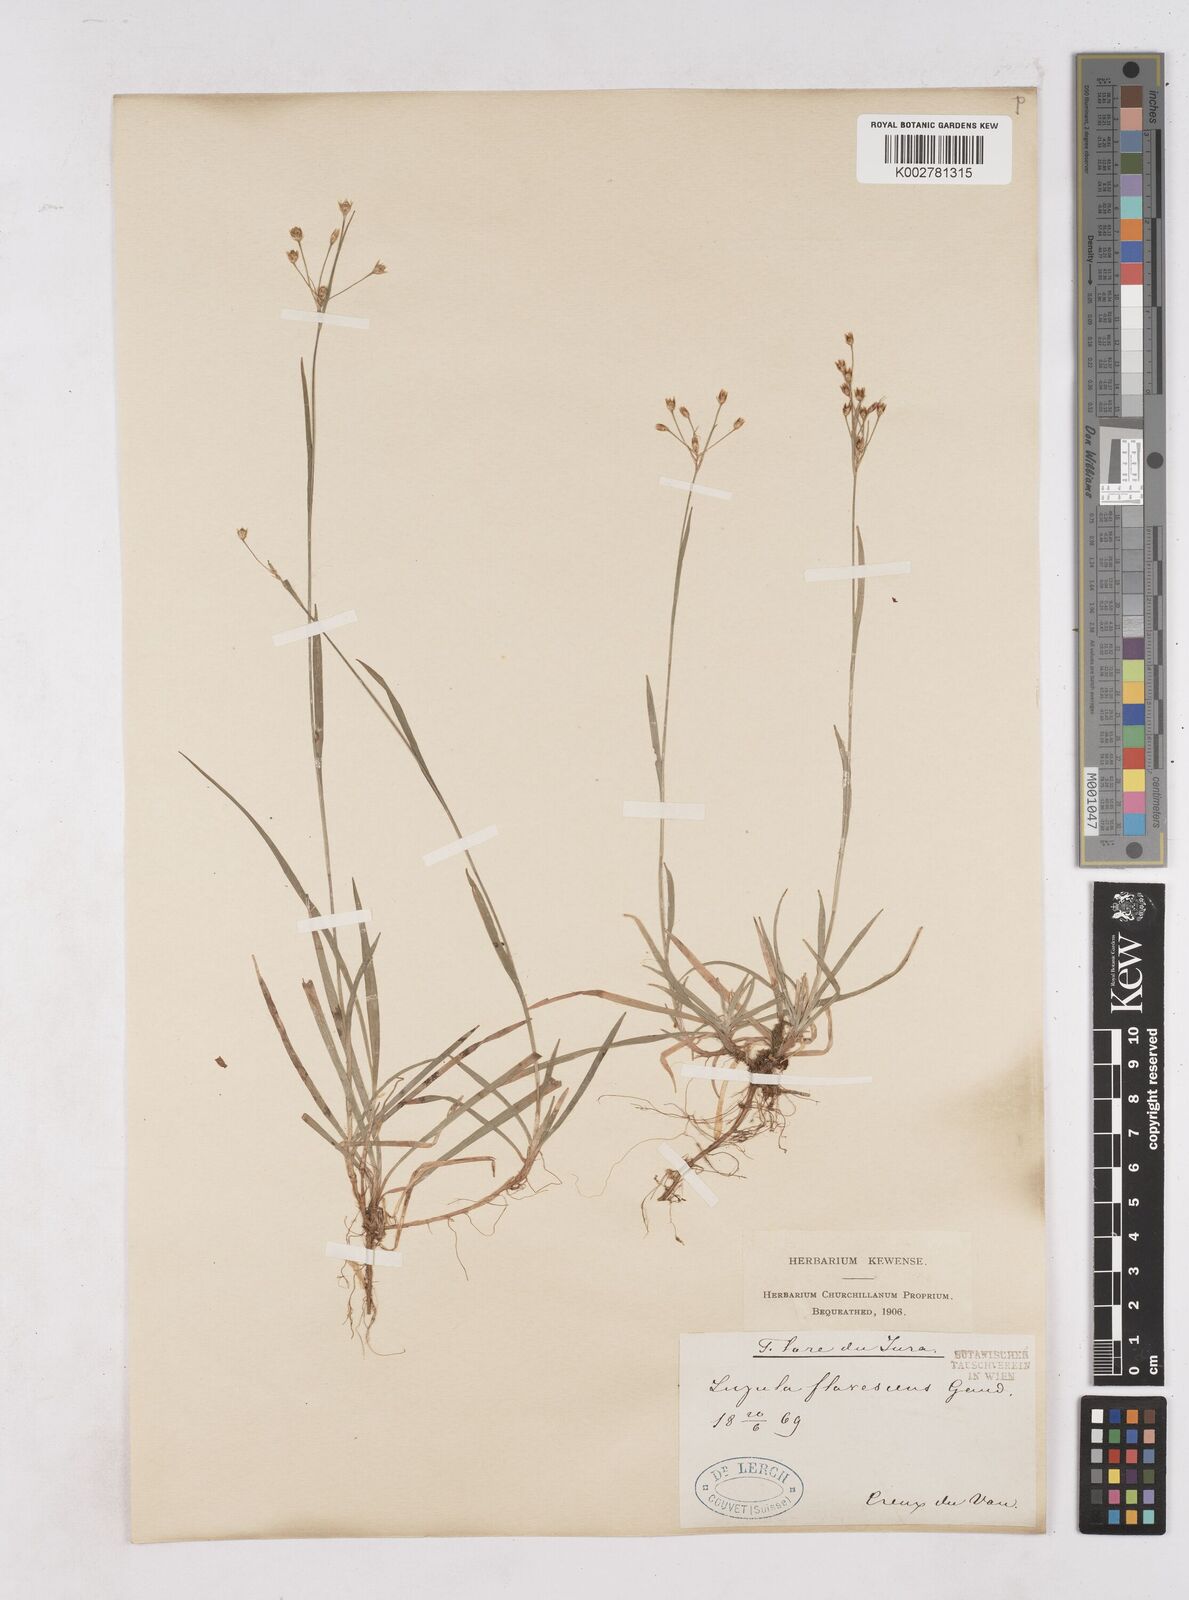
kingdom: Plantae
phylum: Tracheophyta
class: Liliopsida
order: Poales
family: Juncaceae
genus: Luzula
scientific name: Luzula luzulina
